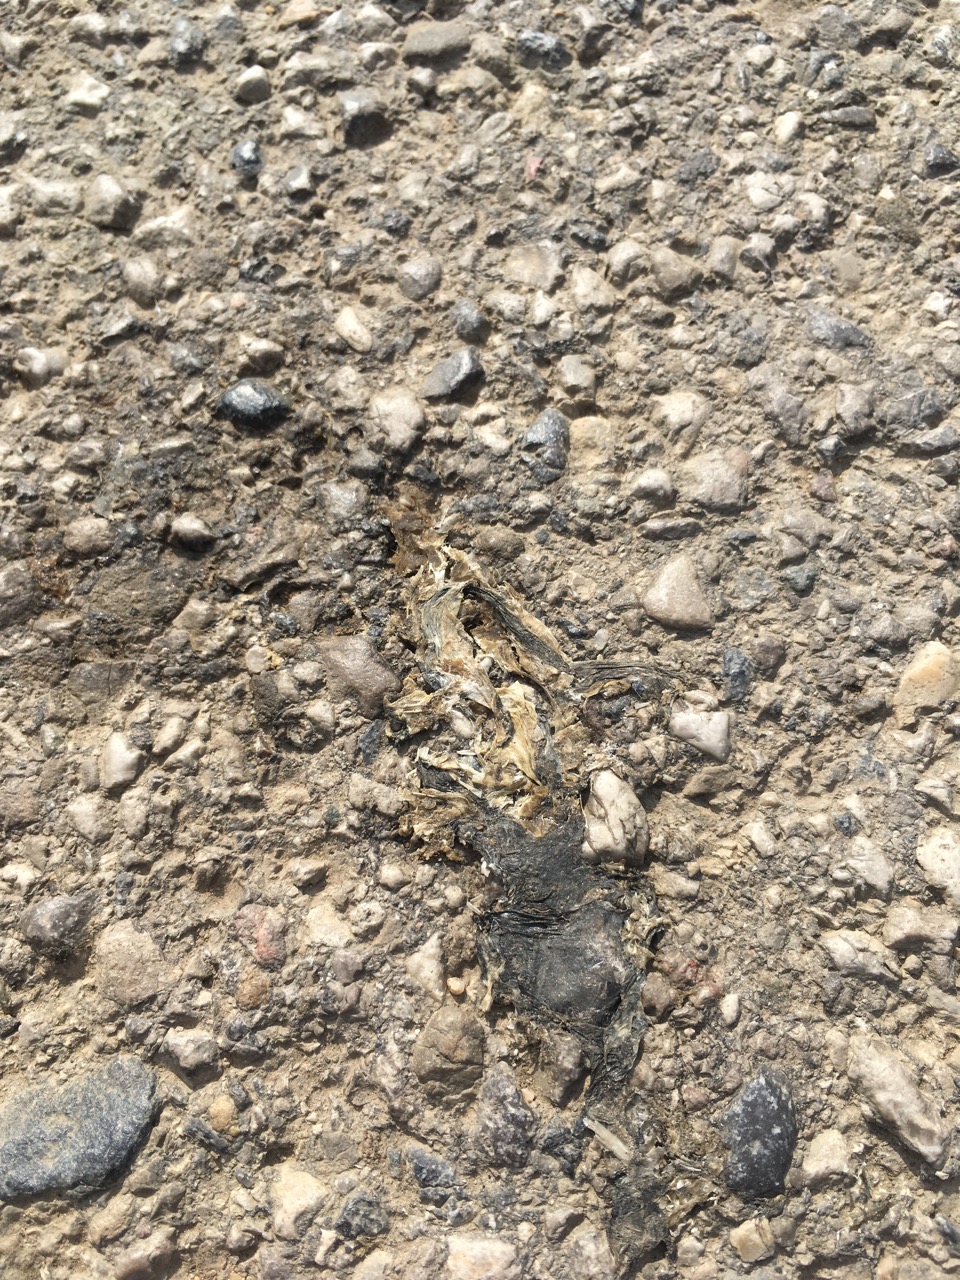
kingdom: Animalia
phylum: Chordata
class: Amphibia
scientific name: Amphibia
